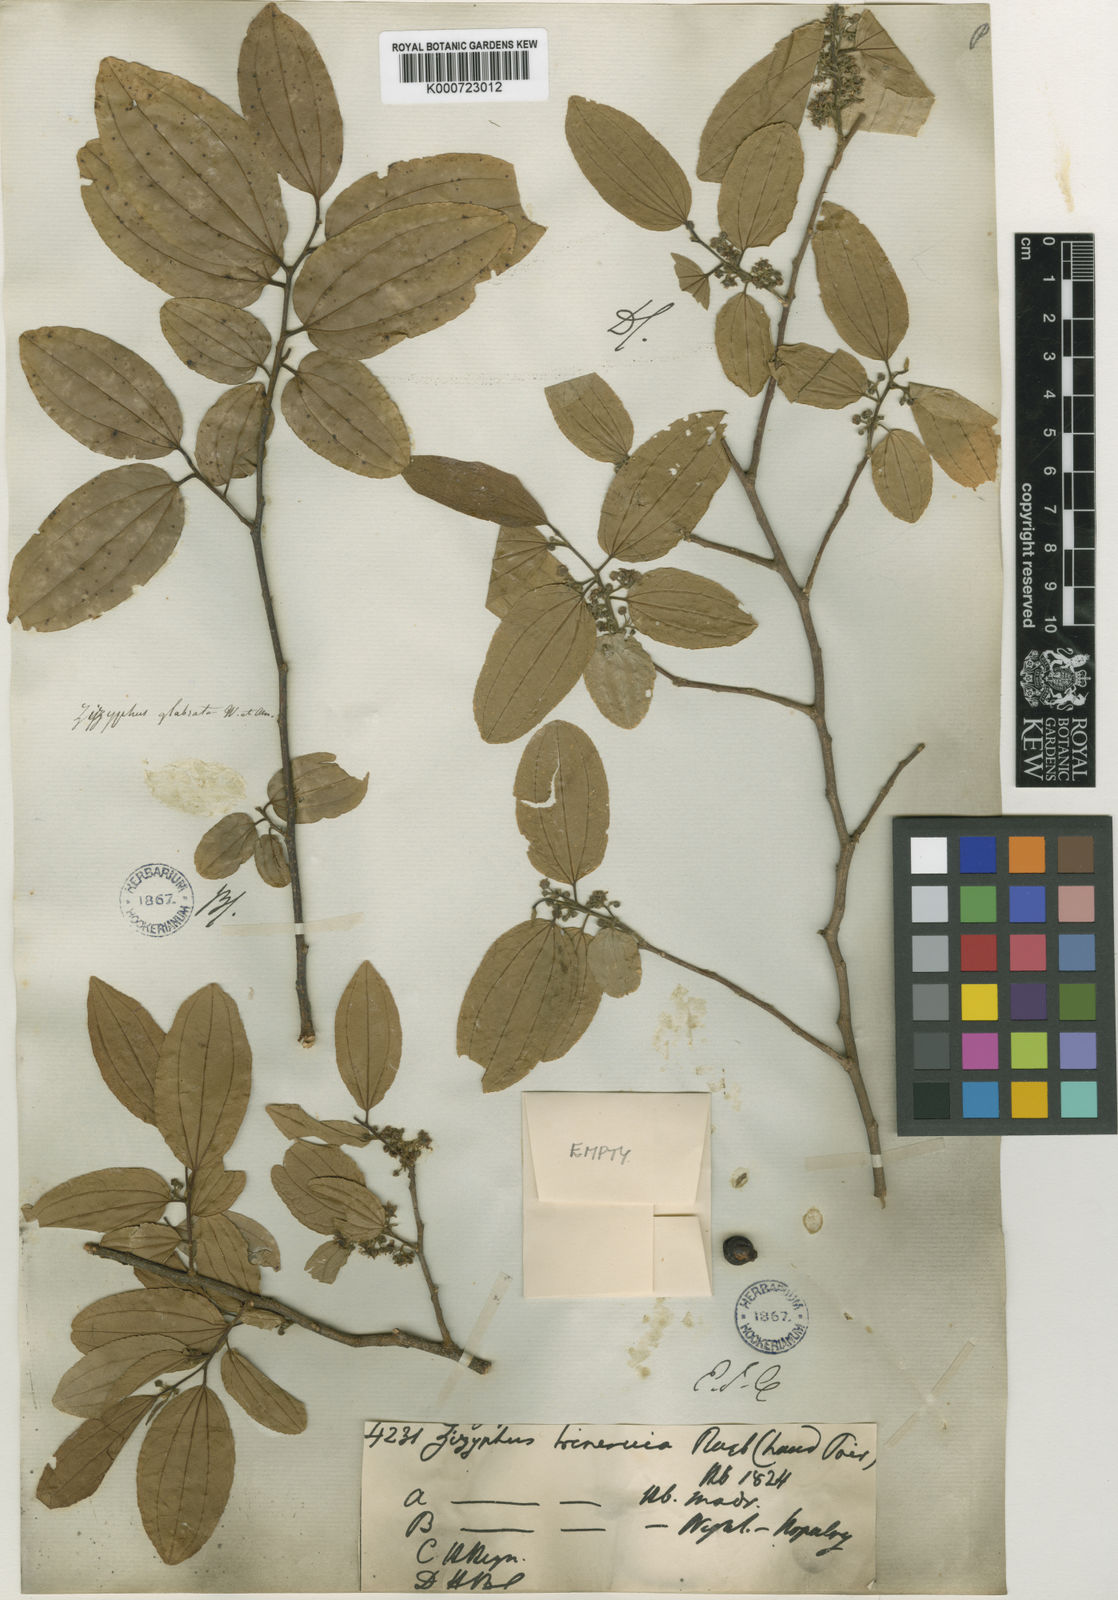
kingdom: Plantae
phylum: Tracheophyta
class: Magnoliopsida
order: Rosales
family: Rhamnaceae
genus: Ziziphus
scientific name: Ziziphus glabrata
